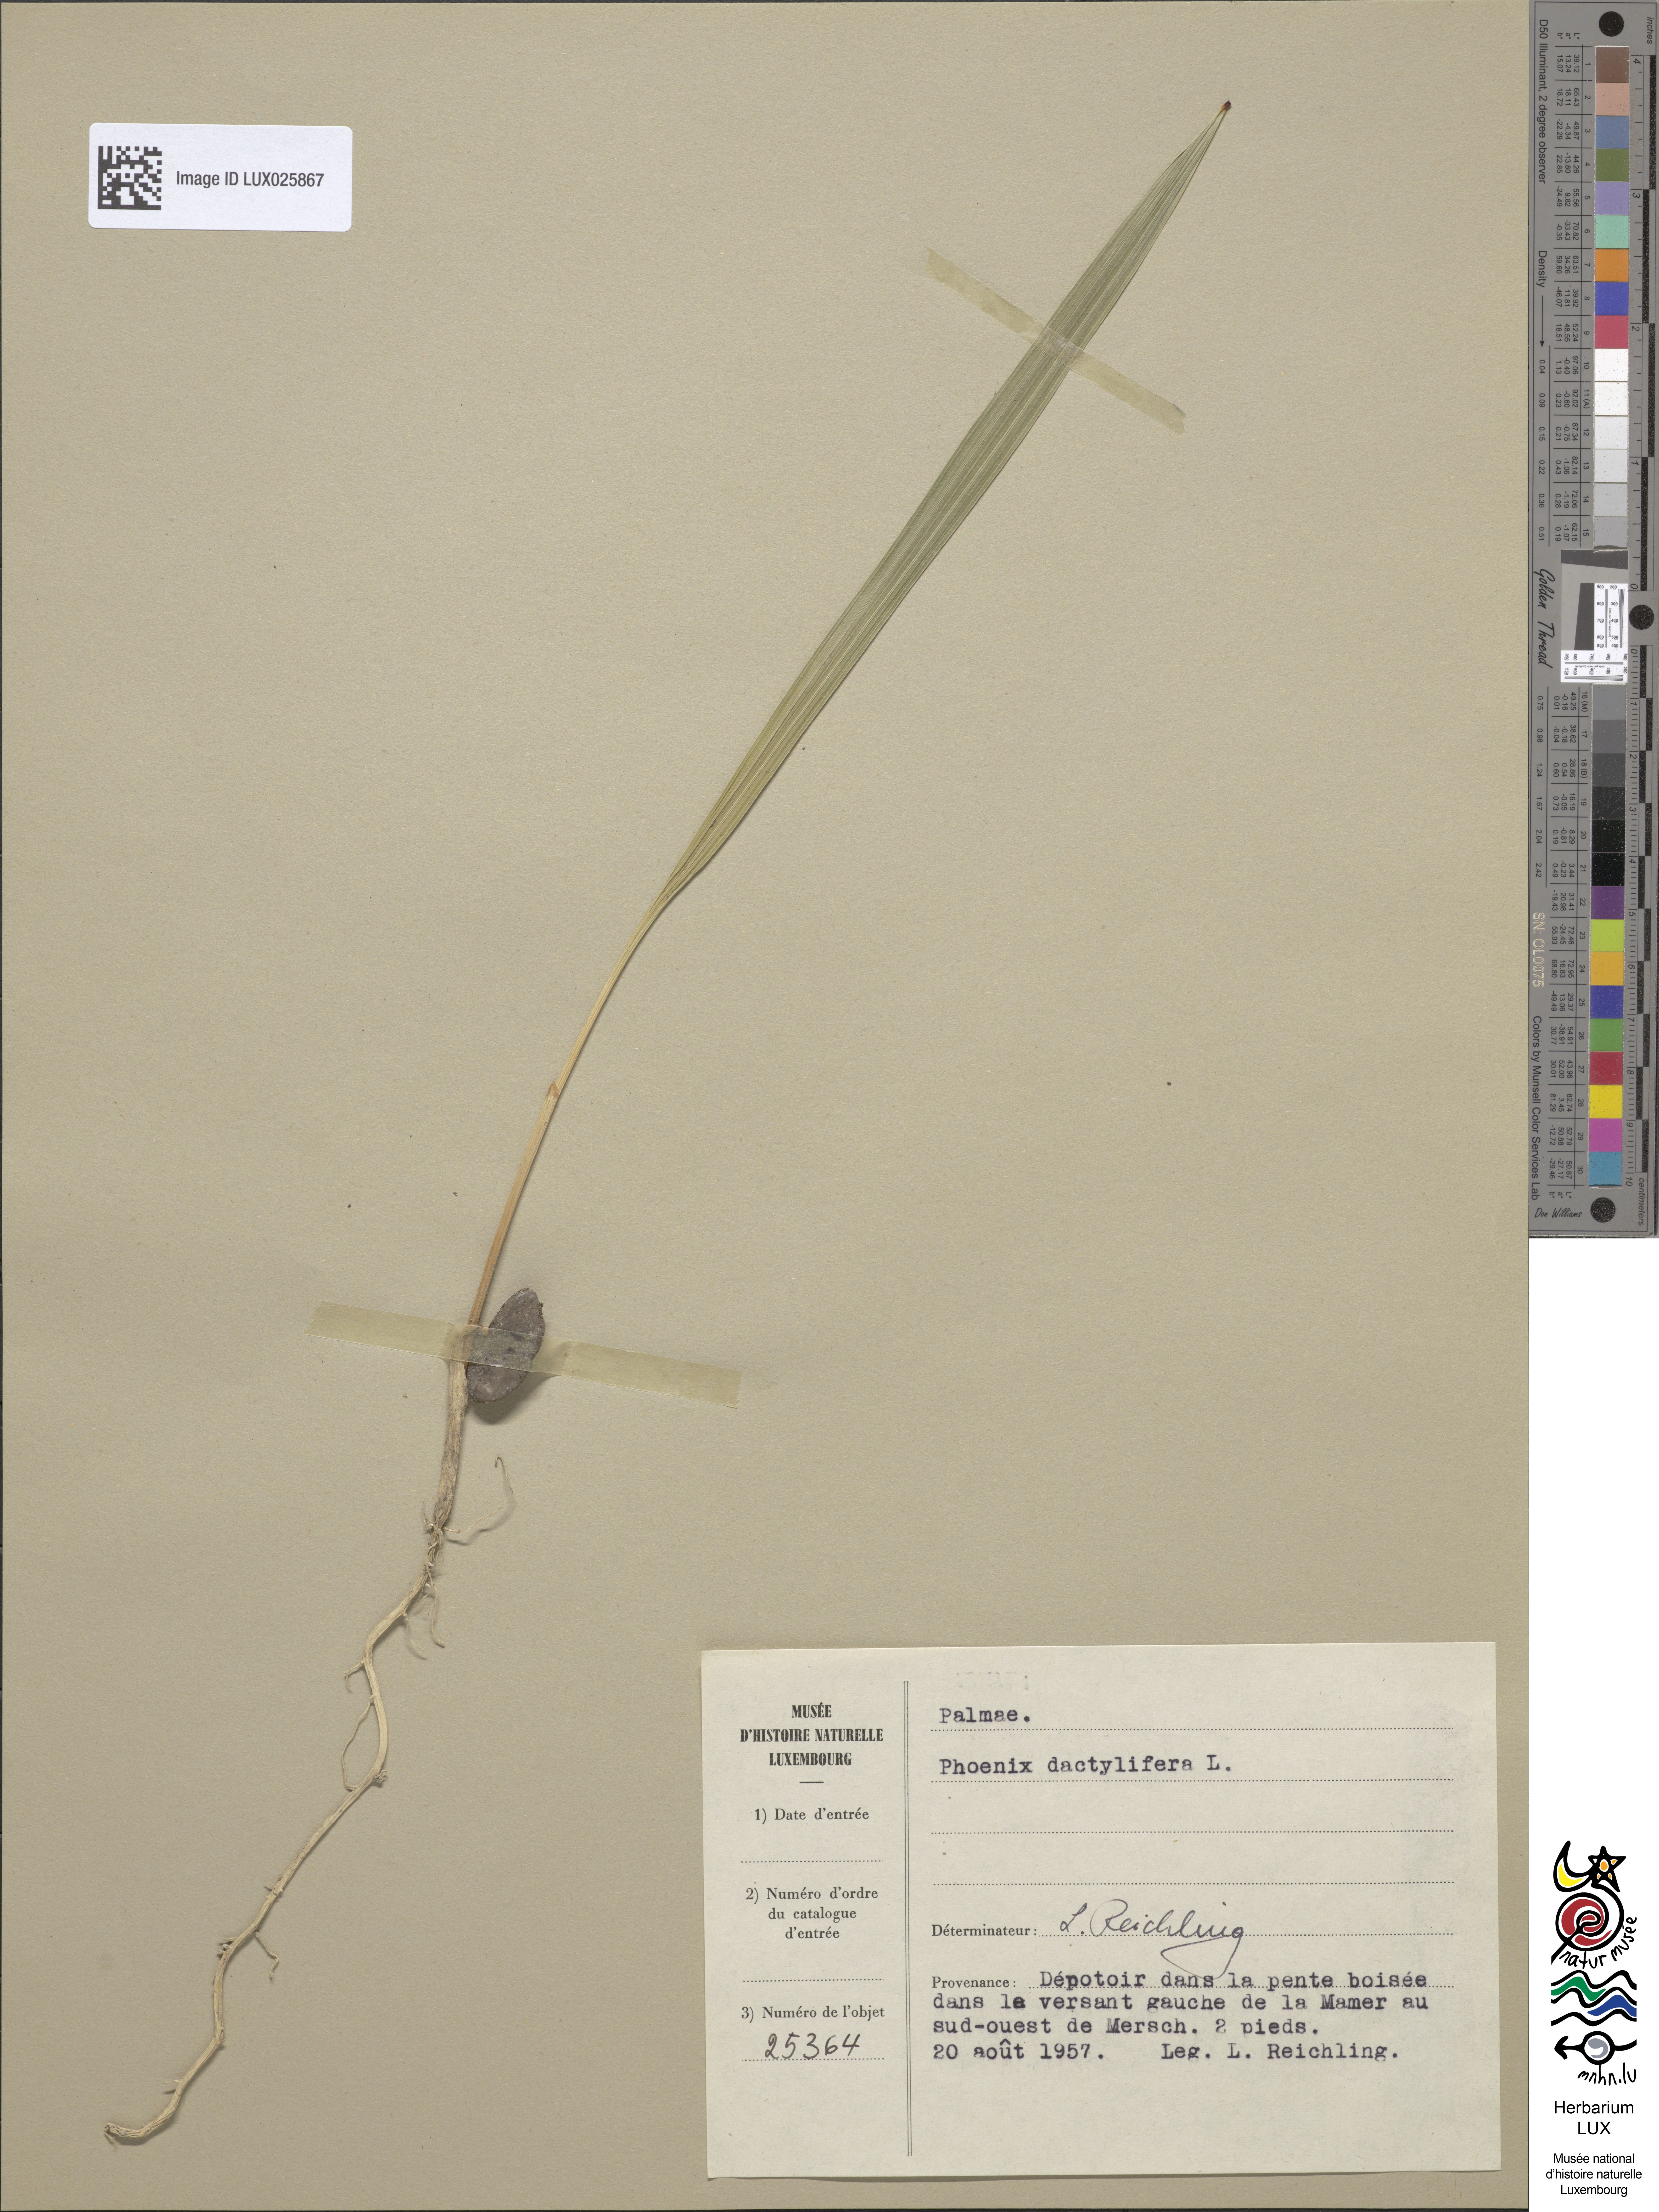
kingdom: Plantae
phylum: Tracheophyta
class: Liliopsida
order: Arecales
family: Arecaceae
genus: Phoenix
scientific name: Phoenix dactylifera
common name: Date palm
